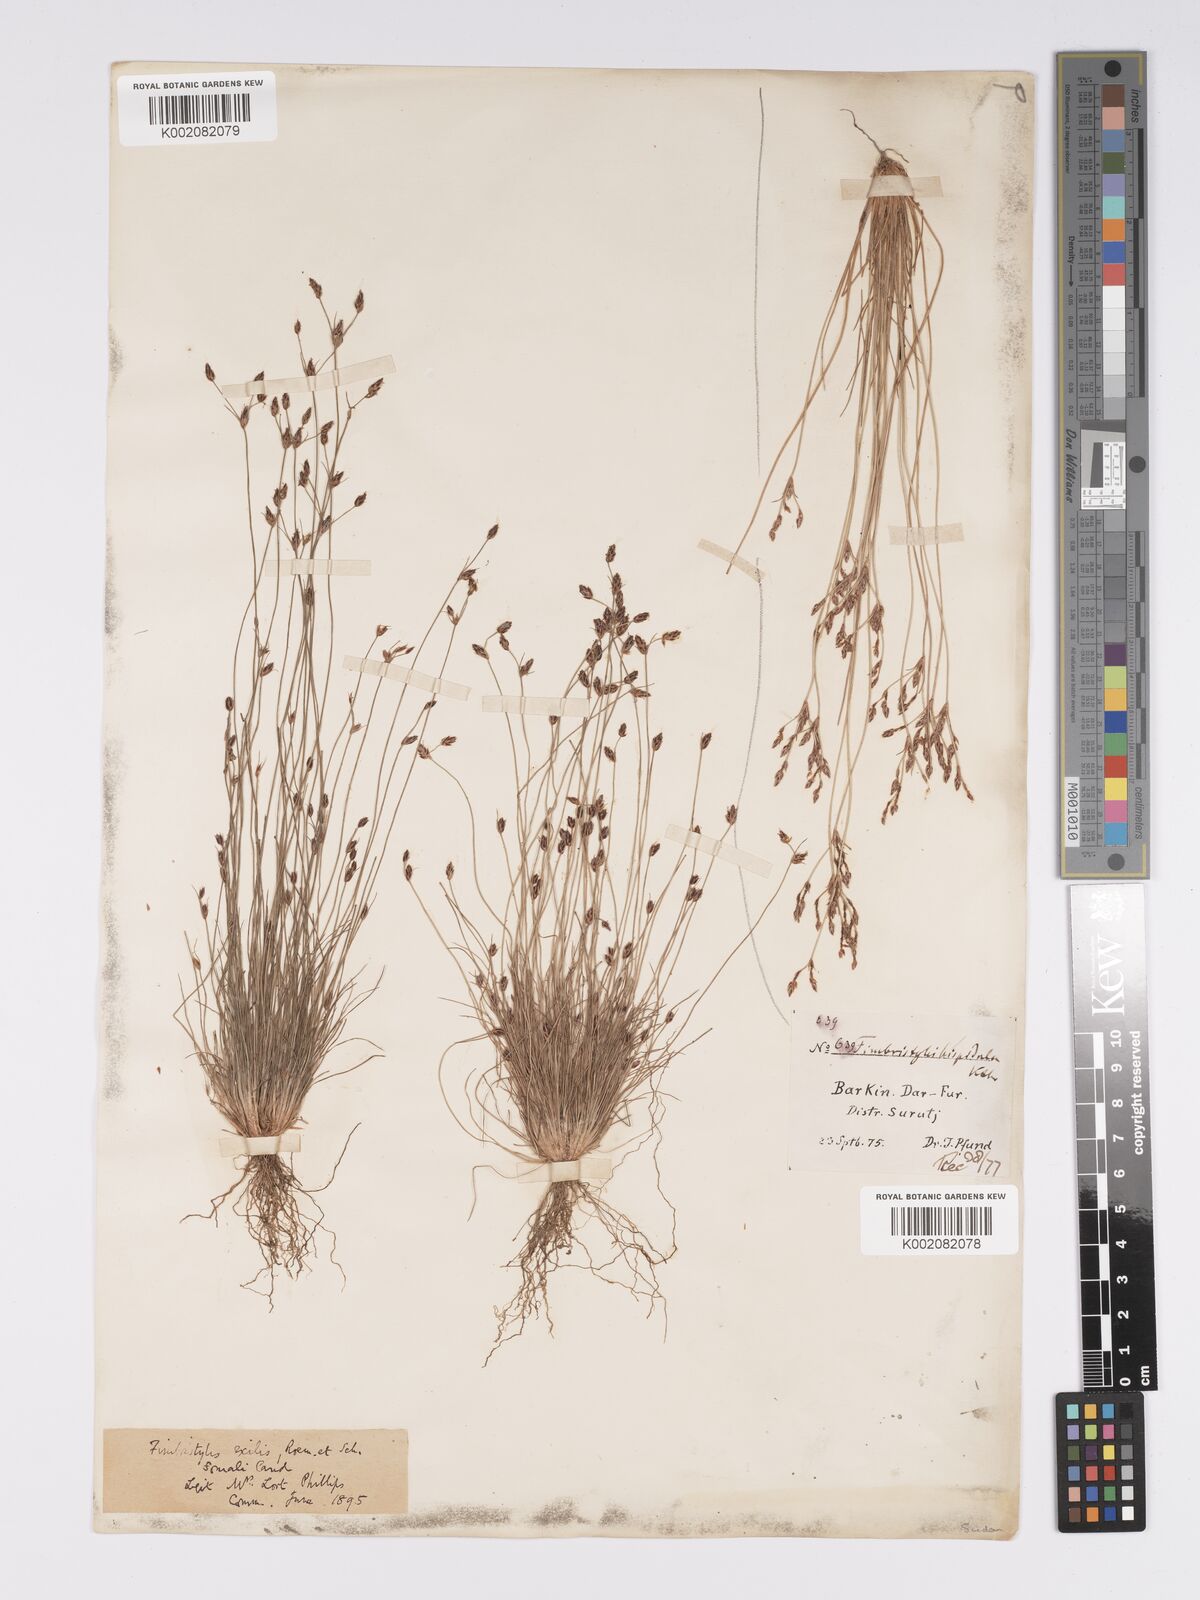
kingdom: Plantae
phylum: Tracheophyta
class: Liliopsida
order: Poales
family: Cyperaceae
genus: Bulbostylis
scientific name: Bulbostylis hispidula
